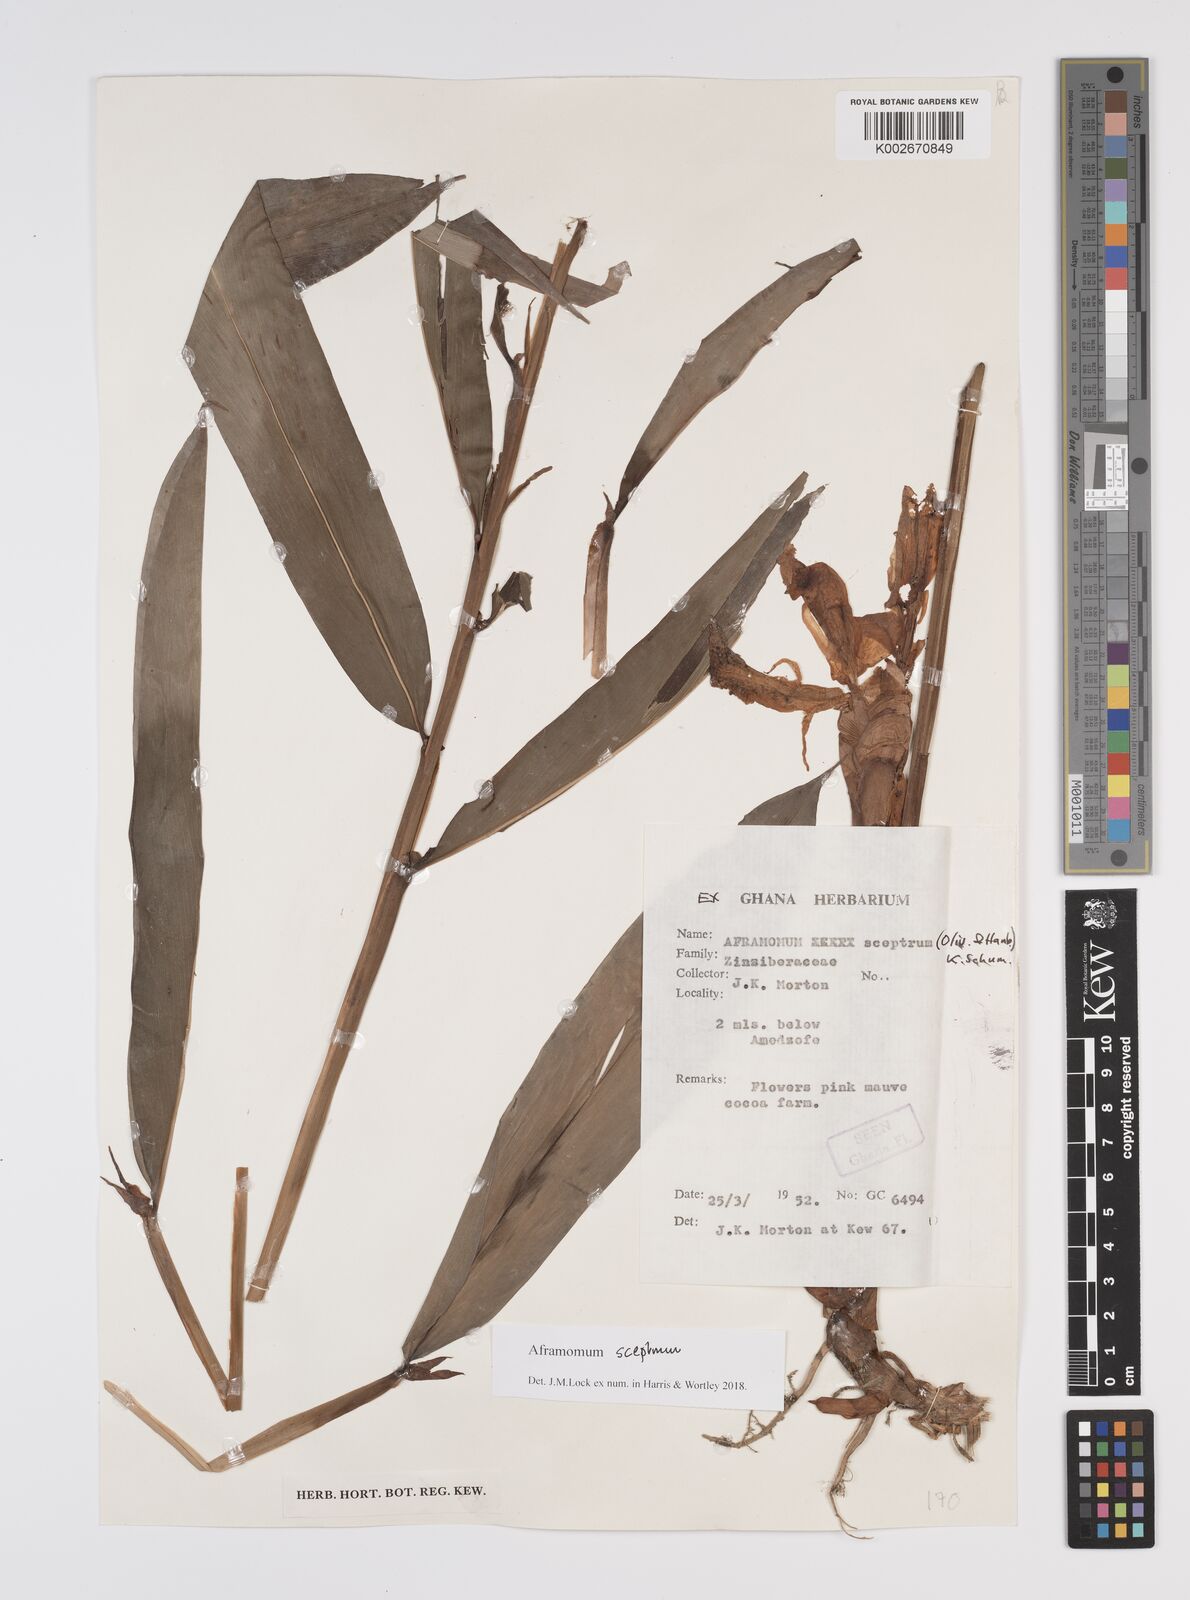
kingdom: Plantae
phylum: Tracheophyta
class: Liliopsida
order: Zingiberales
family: Zingiberaceae
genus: Aframomum
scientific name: Aframomum cereum
